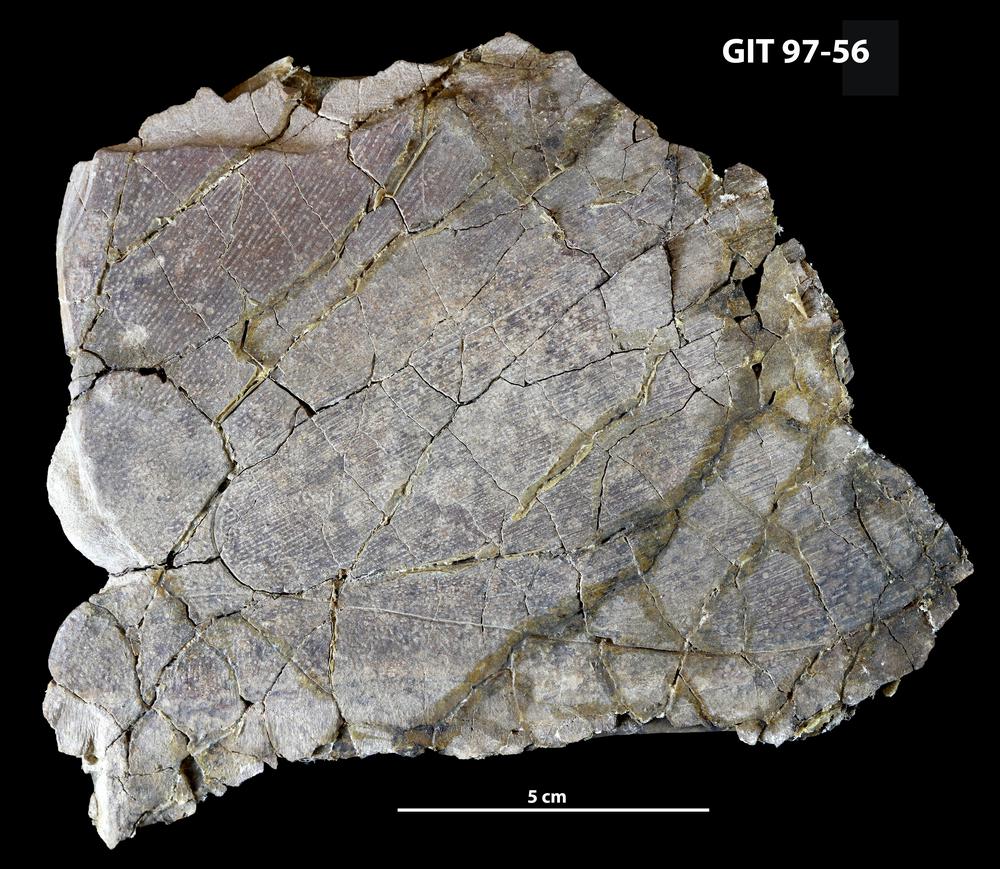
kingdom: Animalia
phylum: Chordata
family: Holonematidae
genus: Holonema
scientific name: Holonema
